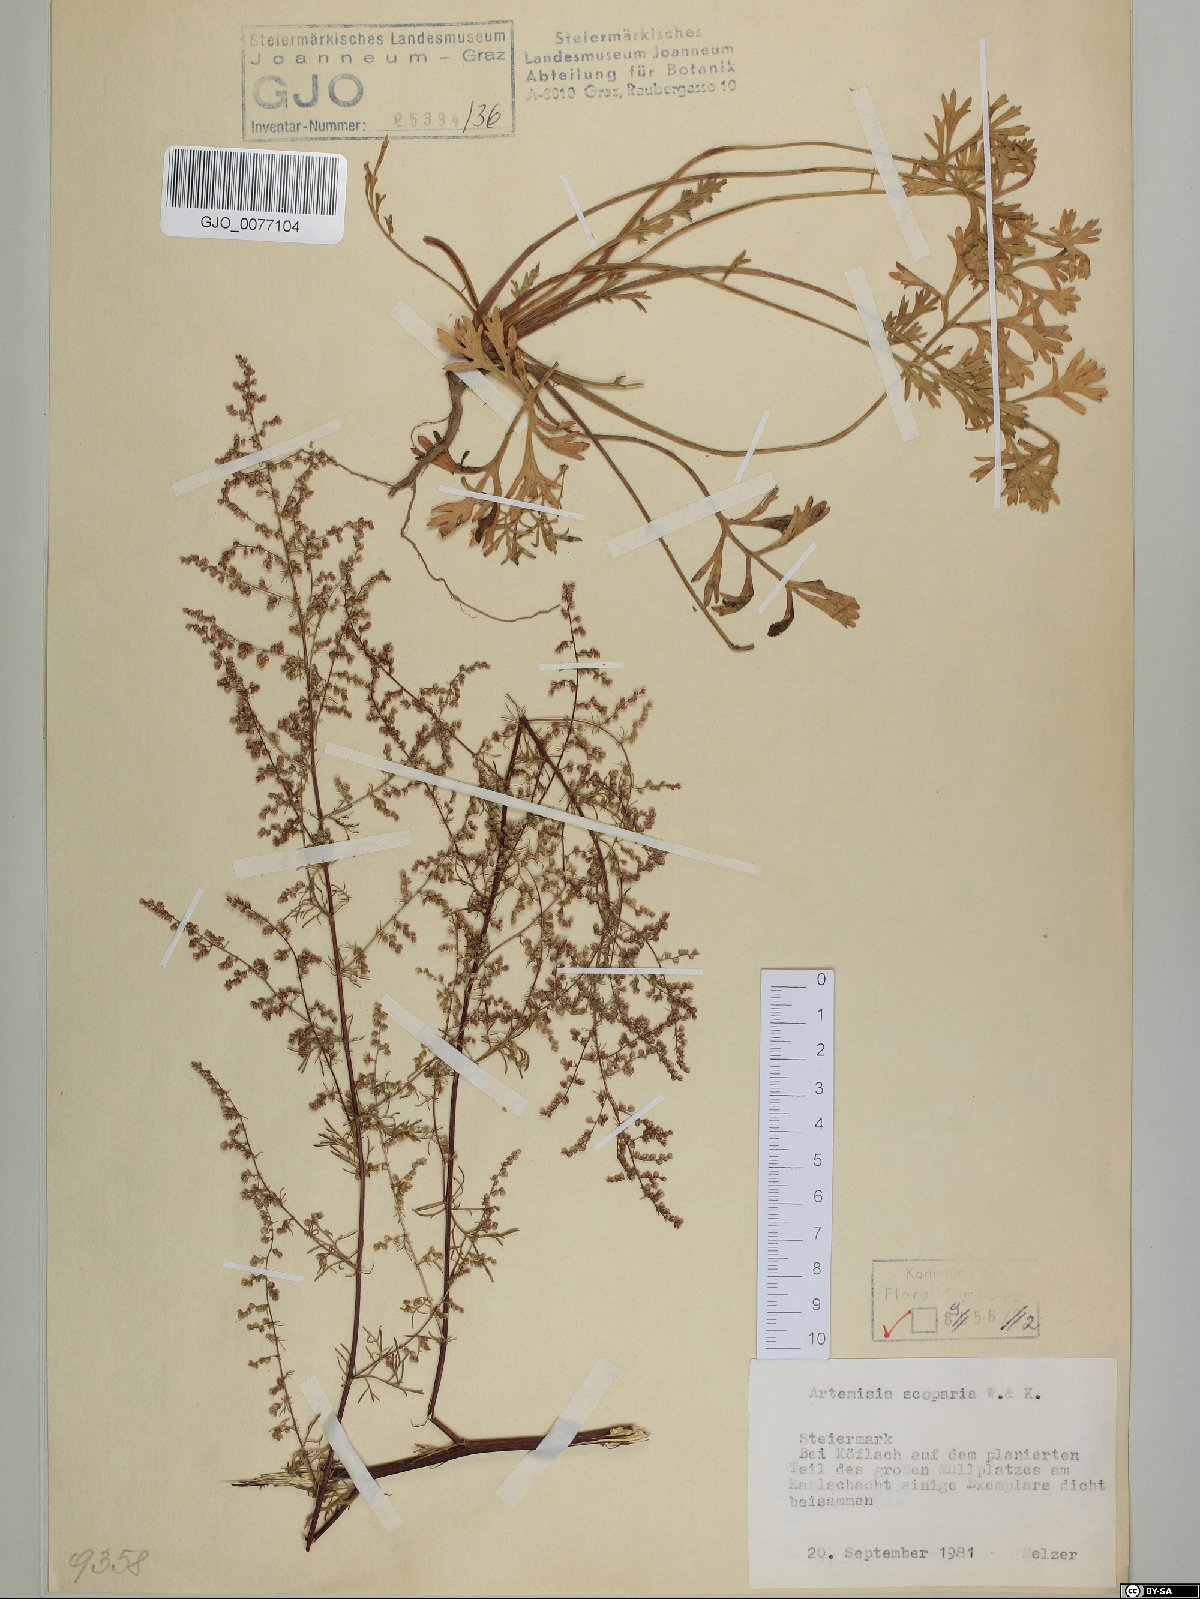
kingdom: Plantae
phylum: Tracheophyta
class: Magnoliopsida
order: Asterales
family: Asteraceae
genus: Artemisia
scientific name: Artemisia scoparia
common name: Redstem wormwood
